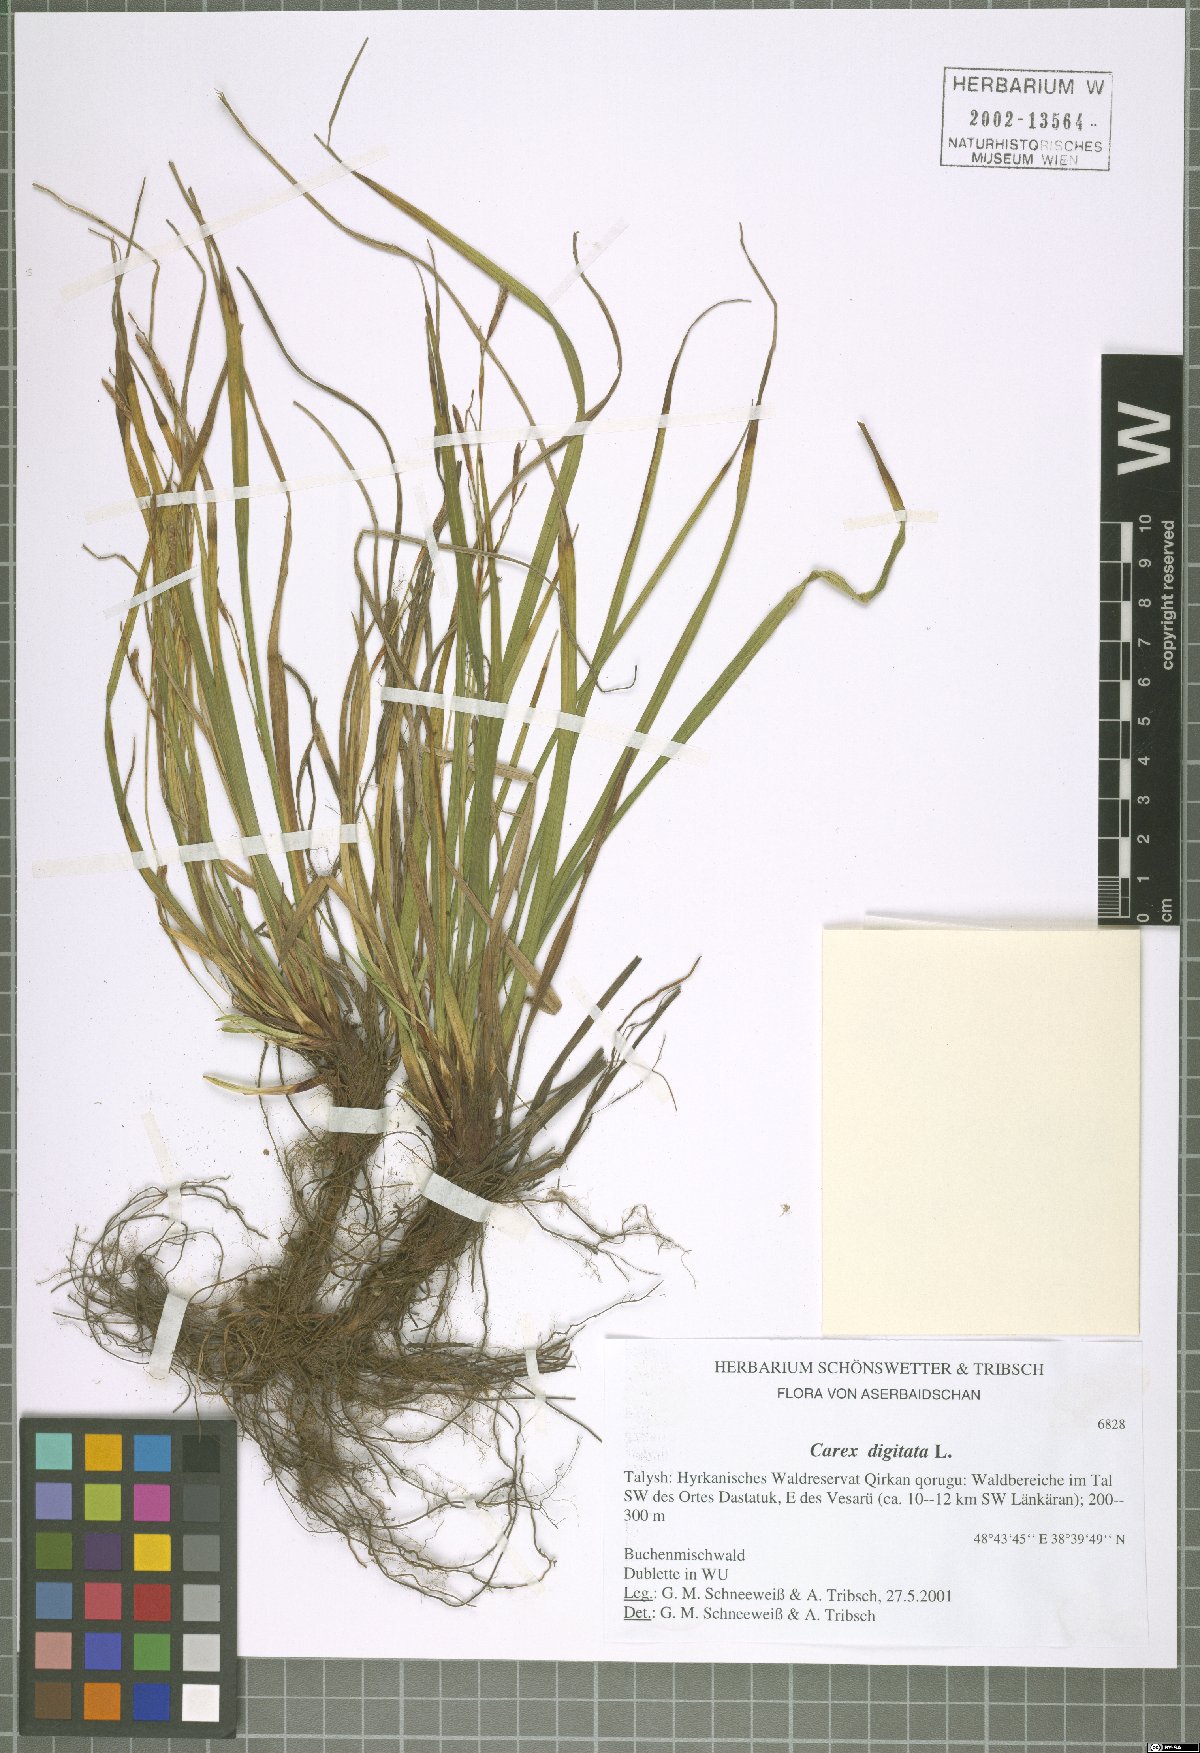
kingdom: Plantae
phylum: Tracheophyta
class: Liliopsida
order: Poales
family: Cyperaceae
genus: Carex
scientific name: Carex digitata
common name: Fingered sedge
